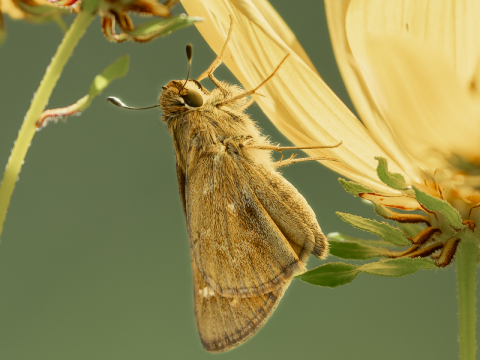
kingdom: Animalia
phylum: Arthropoda
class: Insecta
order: Lepidoptera
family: Hesperiidae
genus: Atalopedes
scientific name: Atalopedes campestris
